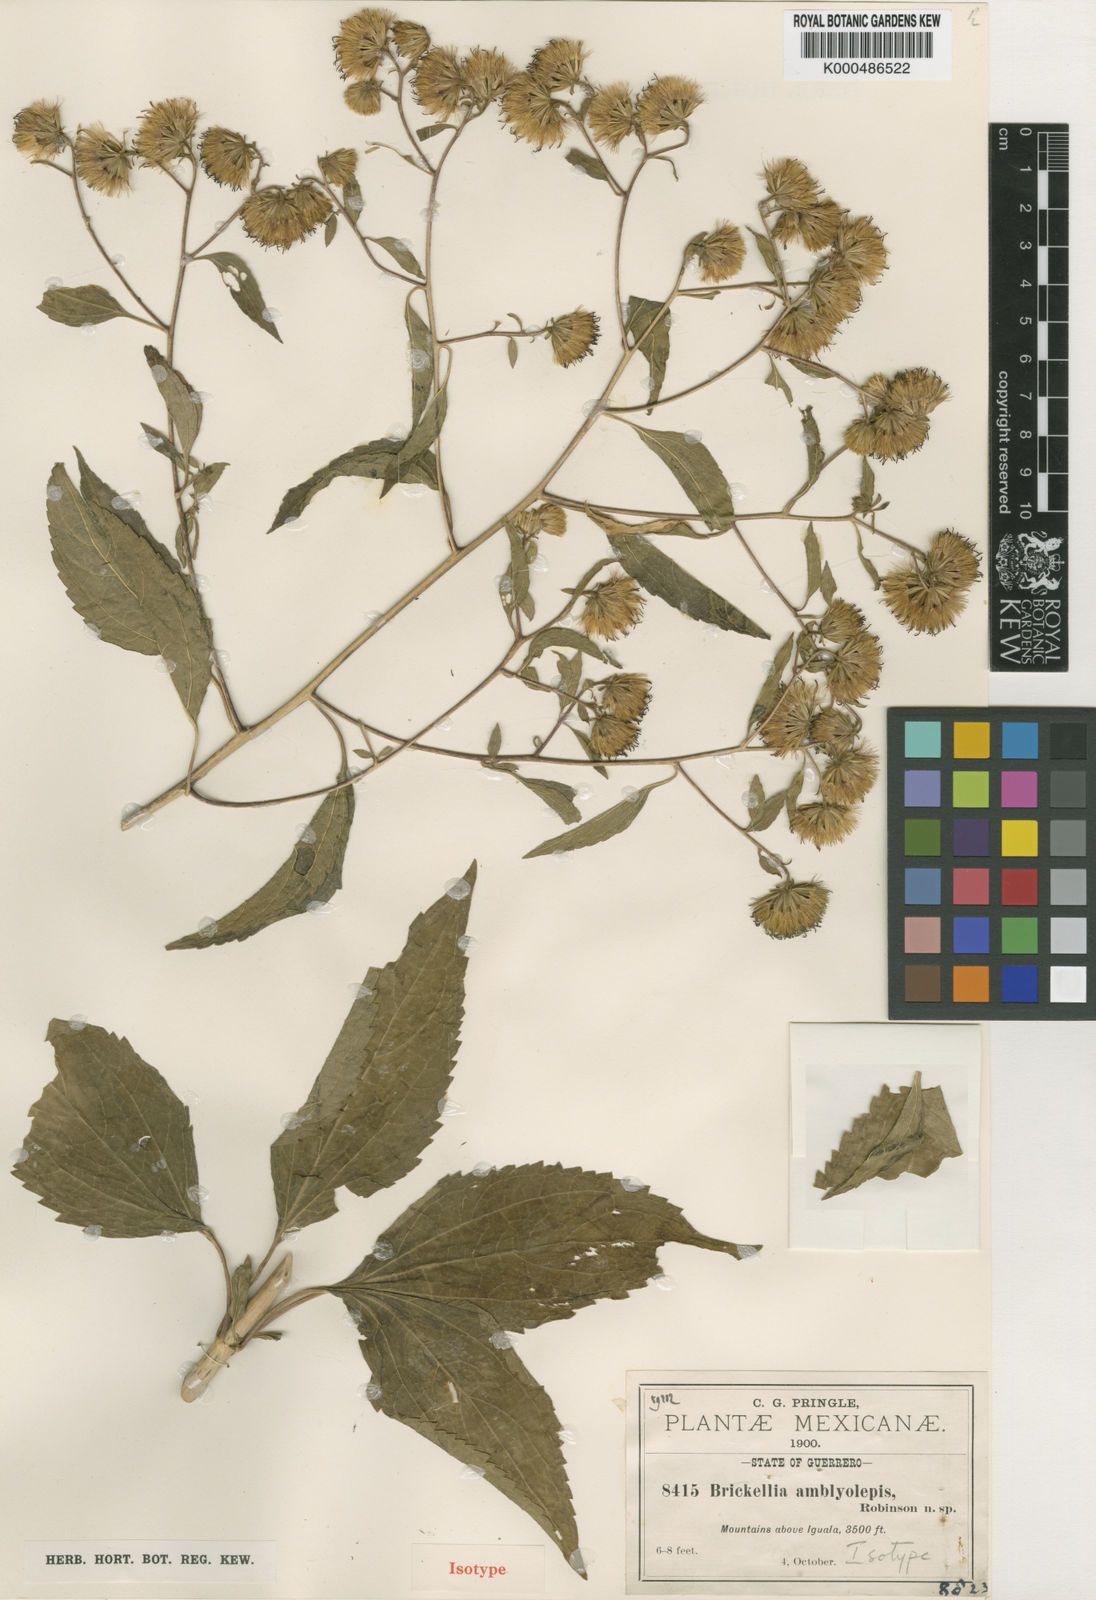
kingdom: Plantae
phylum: Tracheophyta
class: Magnoliopsida
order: Asterales
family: Asteraceae
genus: Steviopsis
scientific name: Steviopsis amblyolepis
